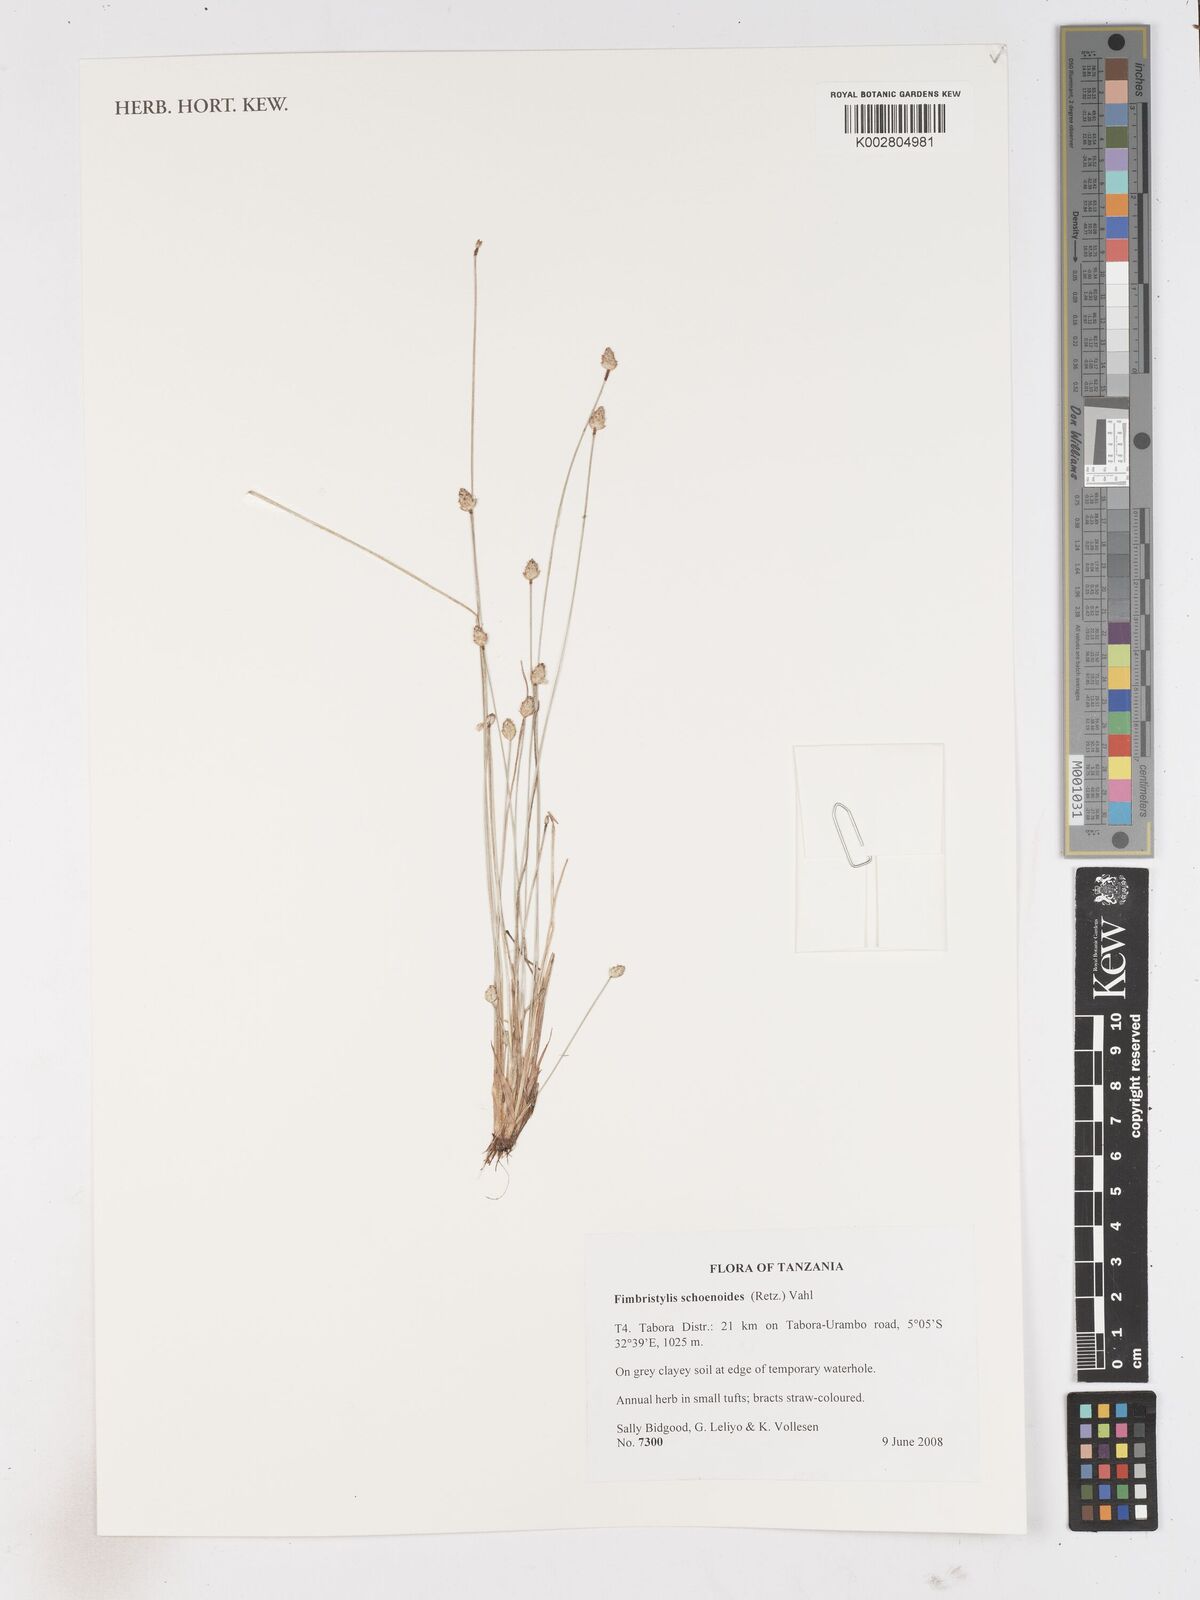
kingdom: Plantae
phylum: Tracheophyta
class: Liliopsida
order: Poales
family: Cyperaceae
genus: Fimbristylis
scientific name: Fimbristylis schoenoides
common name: Ditch fimbry
